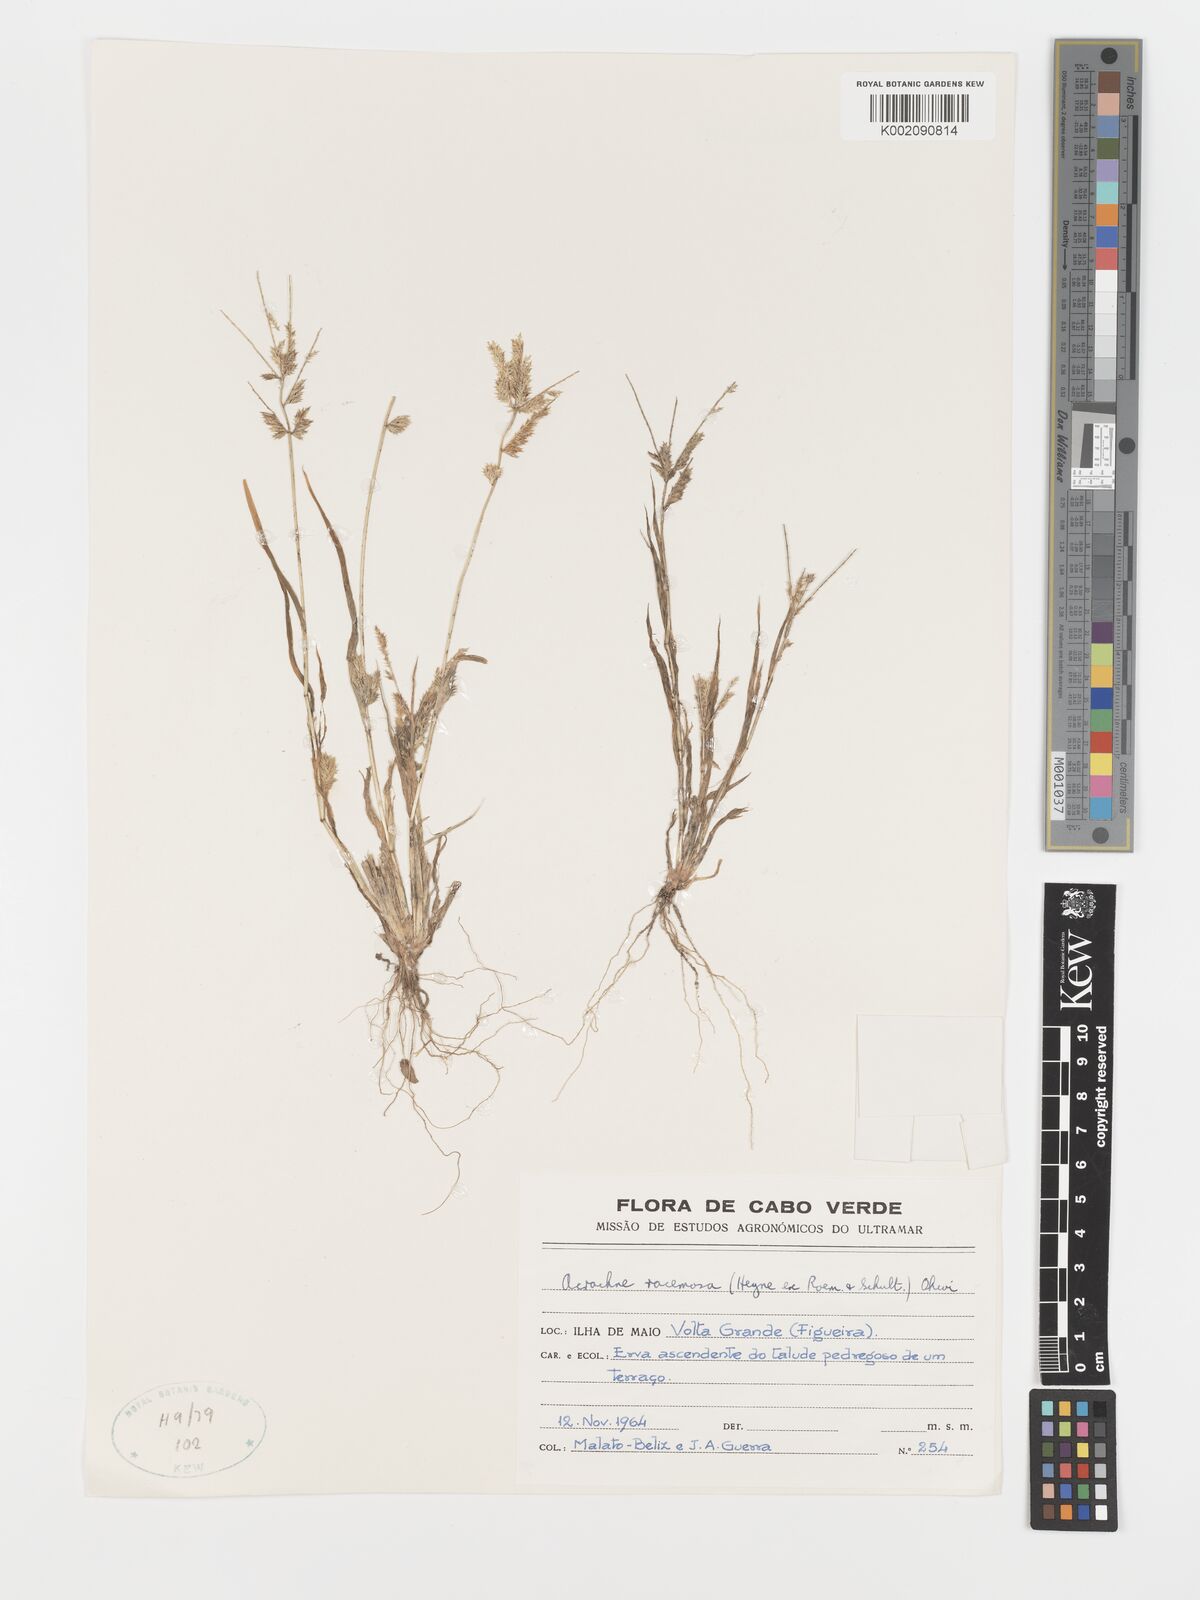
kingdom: Plantae
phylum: Tracheophyta
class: Liliopsida
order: Poales
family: Poaceae
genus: Acrachne
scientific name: Acrachne racemosa
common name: Goosegrass
